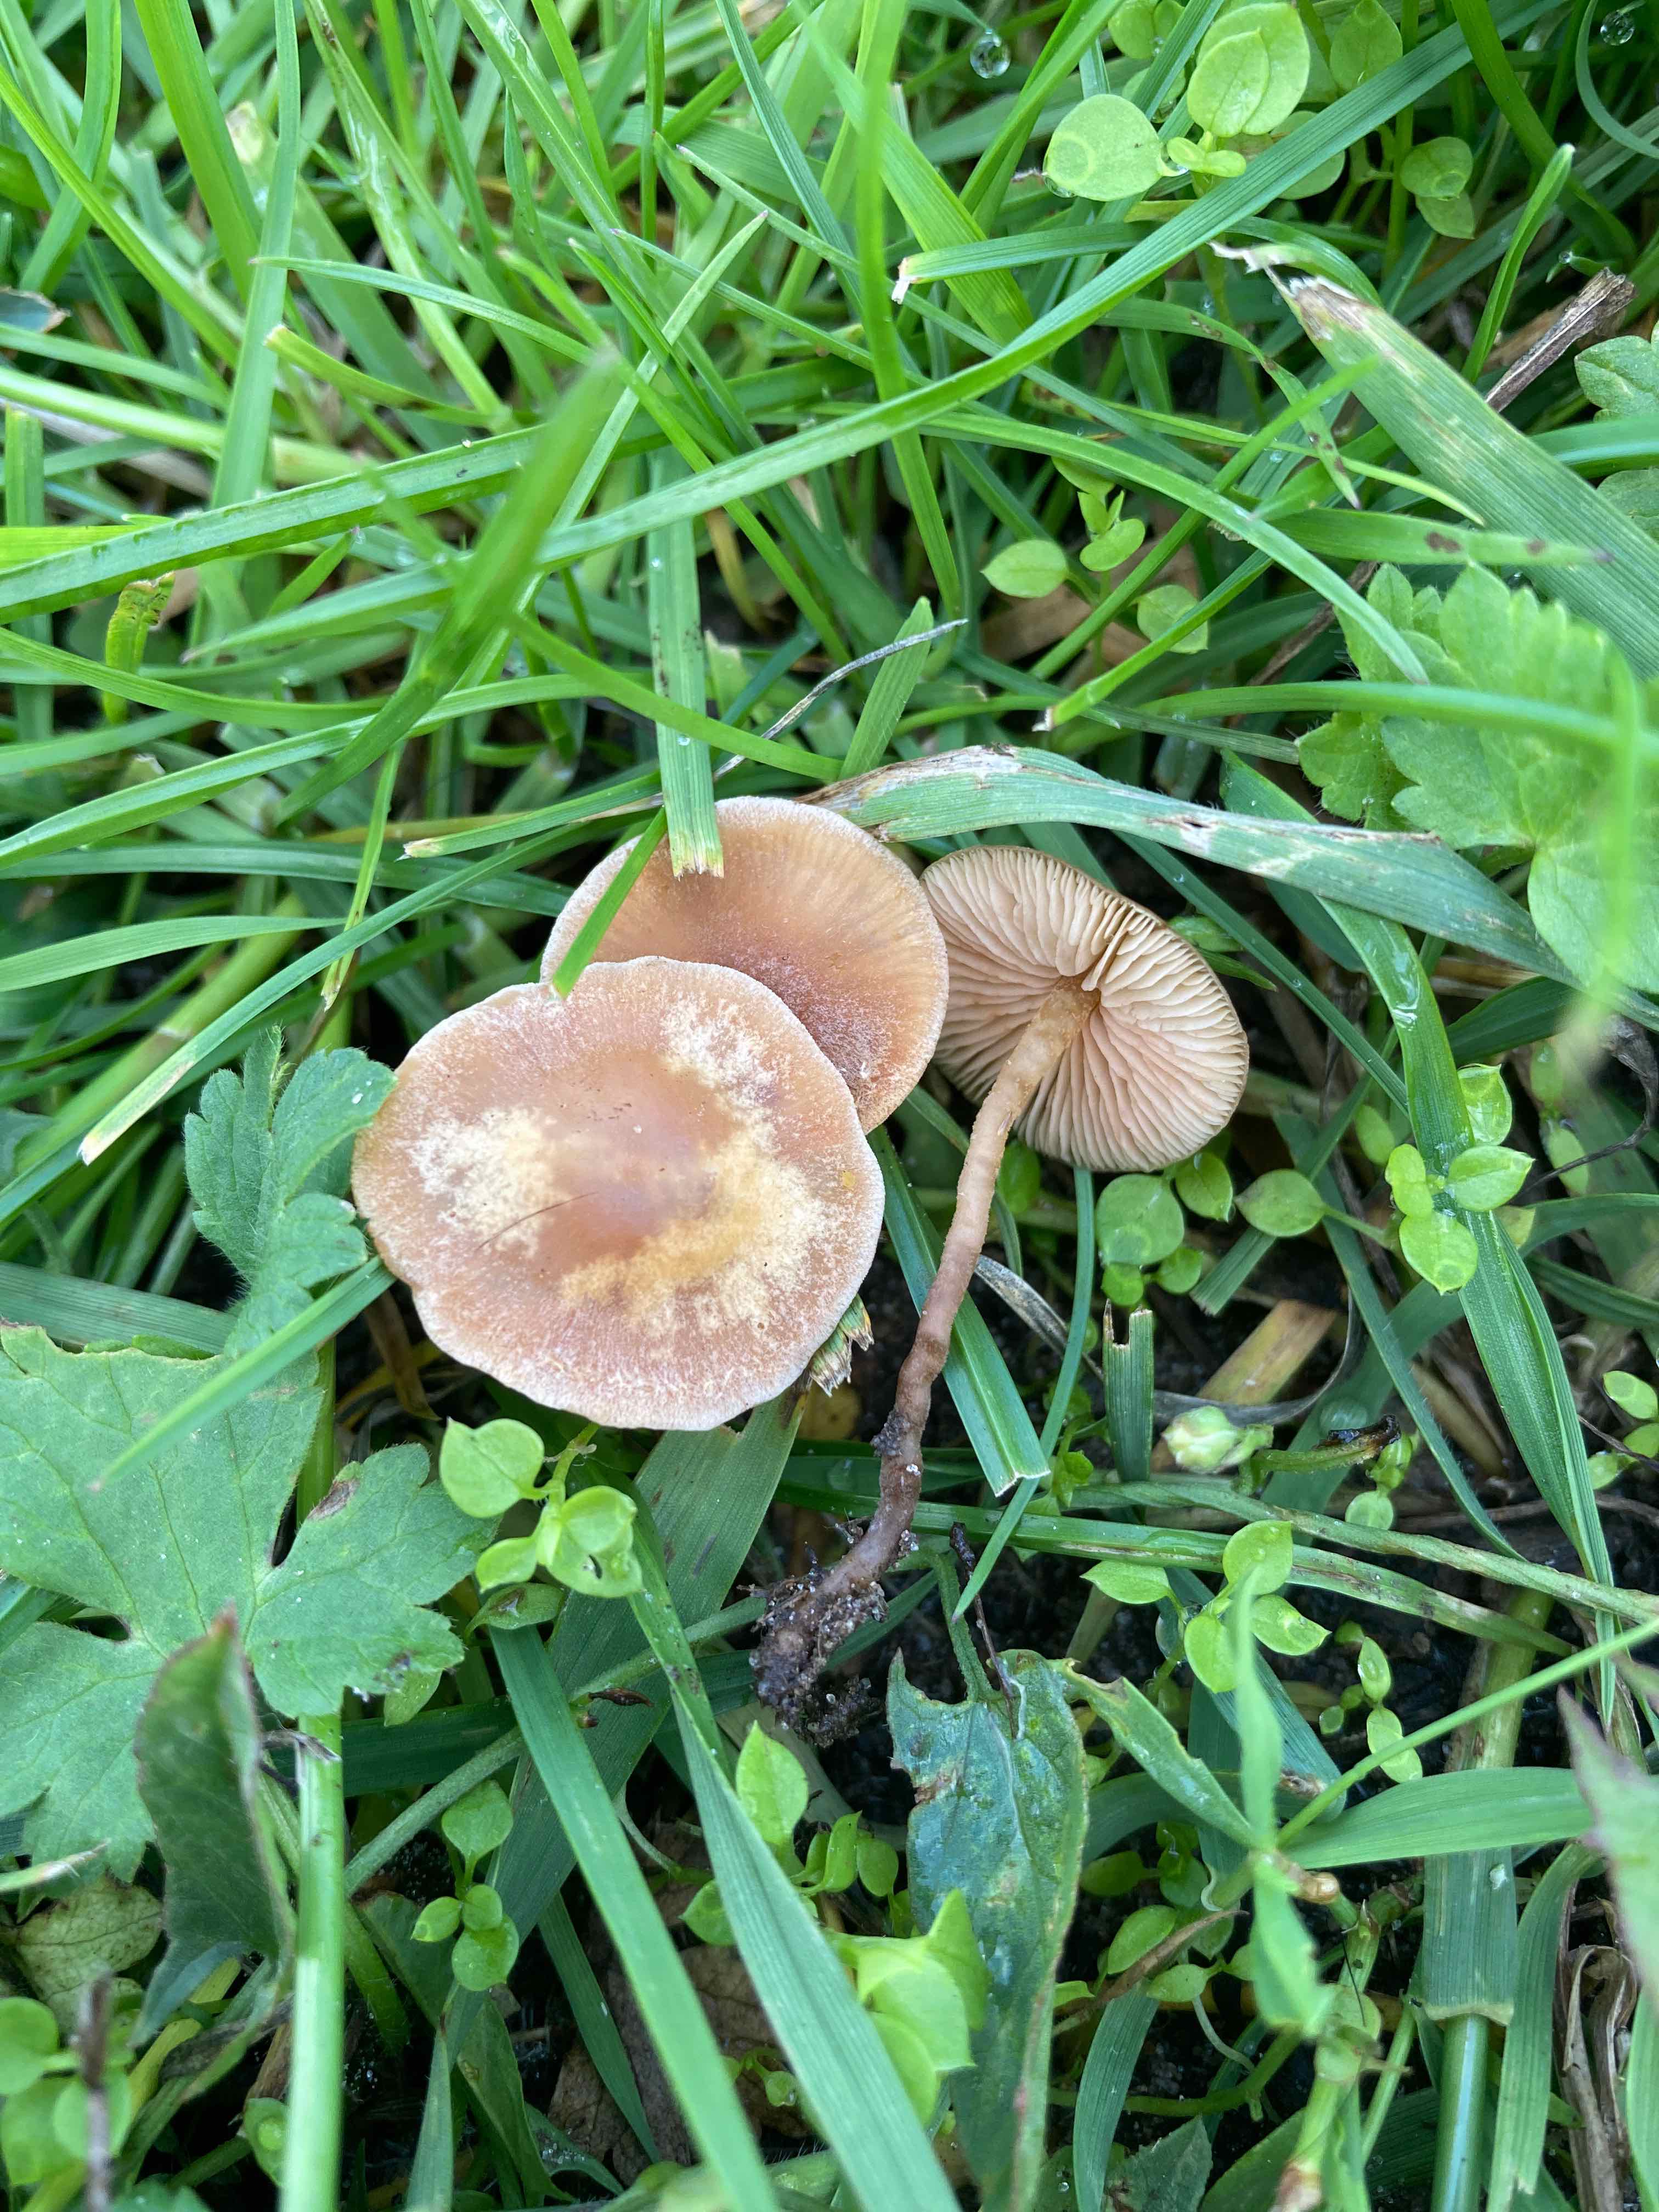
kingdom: Fungi
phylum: Basidiomycota
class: Agaricomycetes
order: Agaricales
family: Macrocystidiaceae
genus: Macrocystidia
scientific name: Macrocystidia cucumis
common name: Cucumber cap
